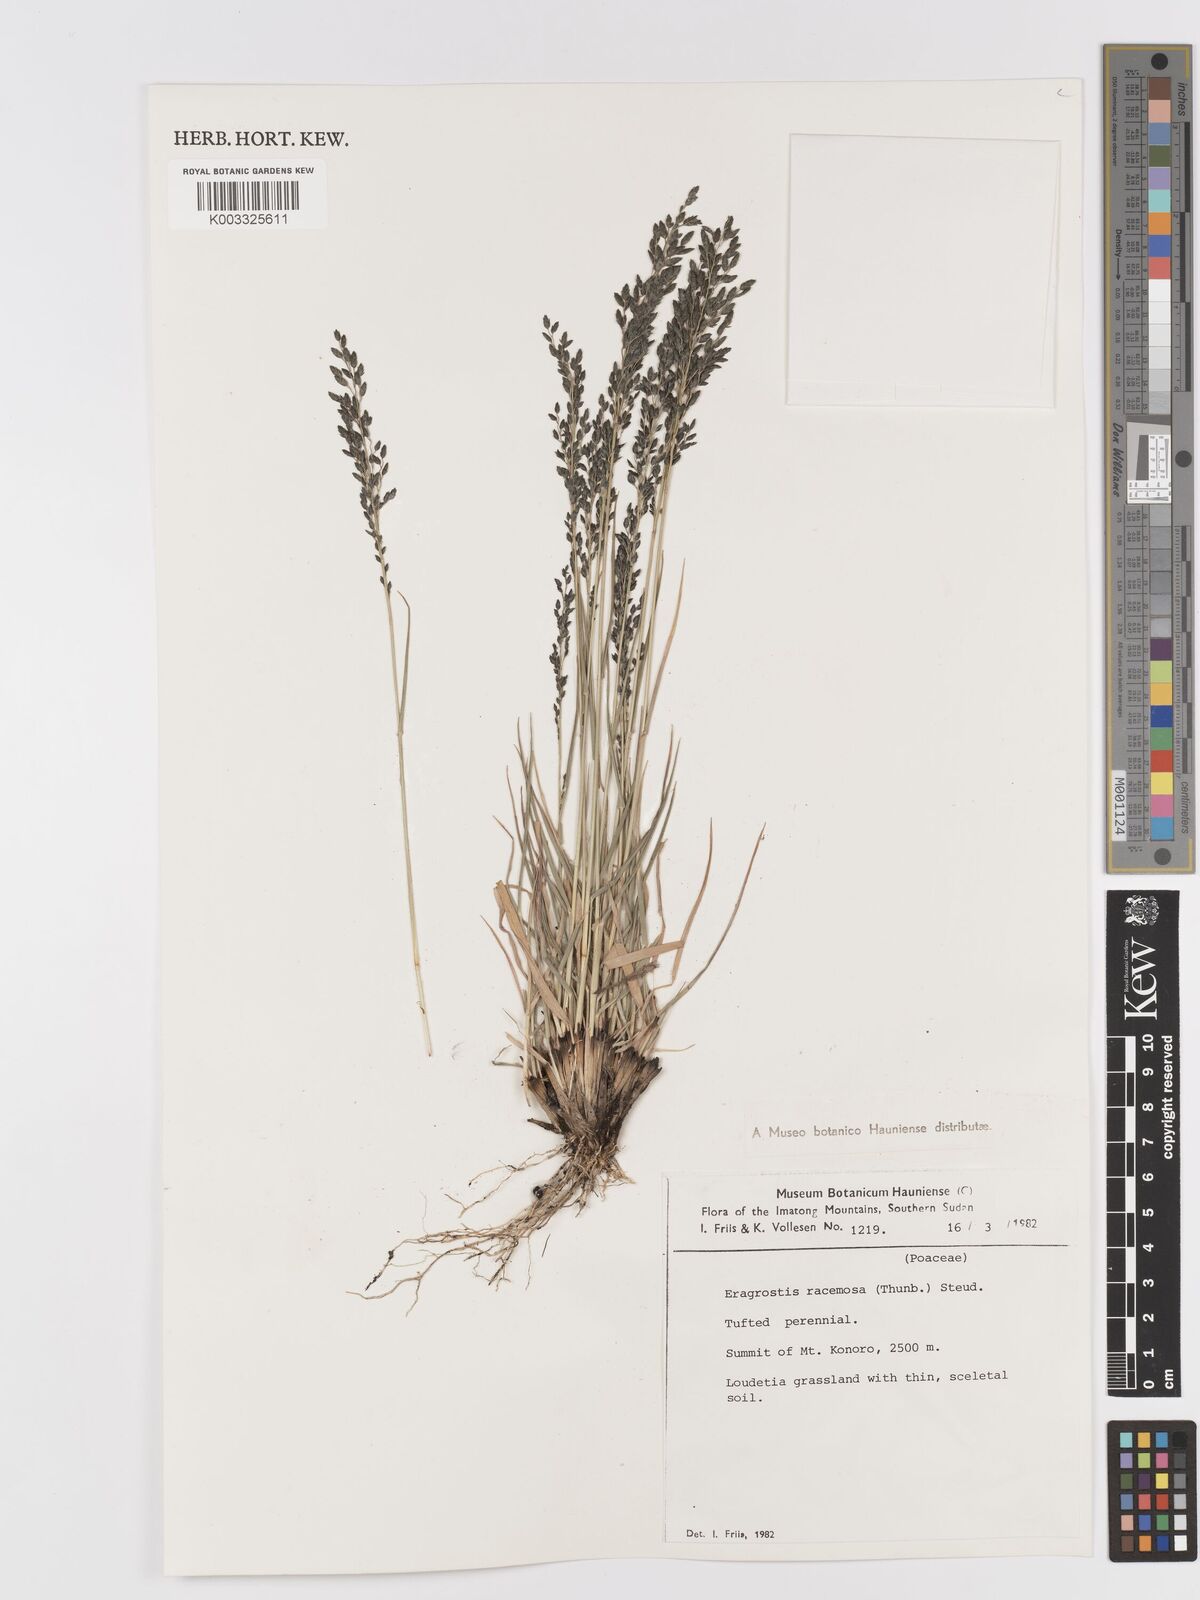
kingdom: Plantae
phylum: Tracheophyta
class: Liliopsida
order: Poales
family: Poaceae
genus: Eragrostis
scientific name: Eragrostis racemosa
